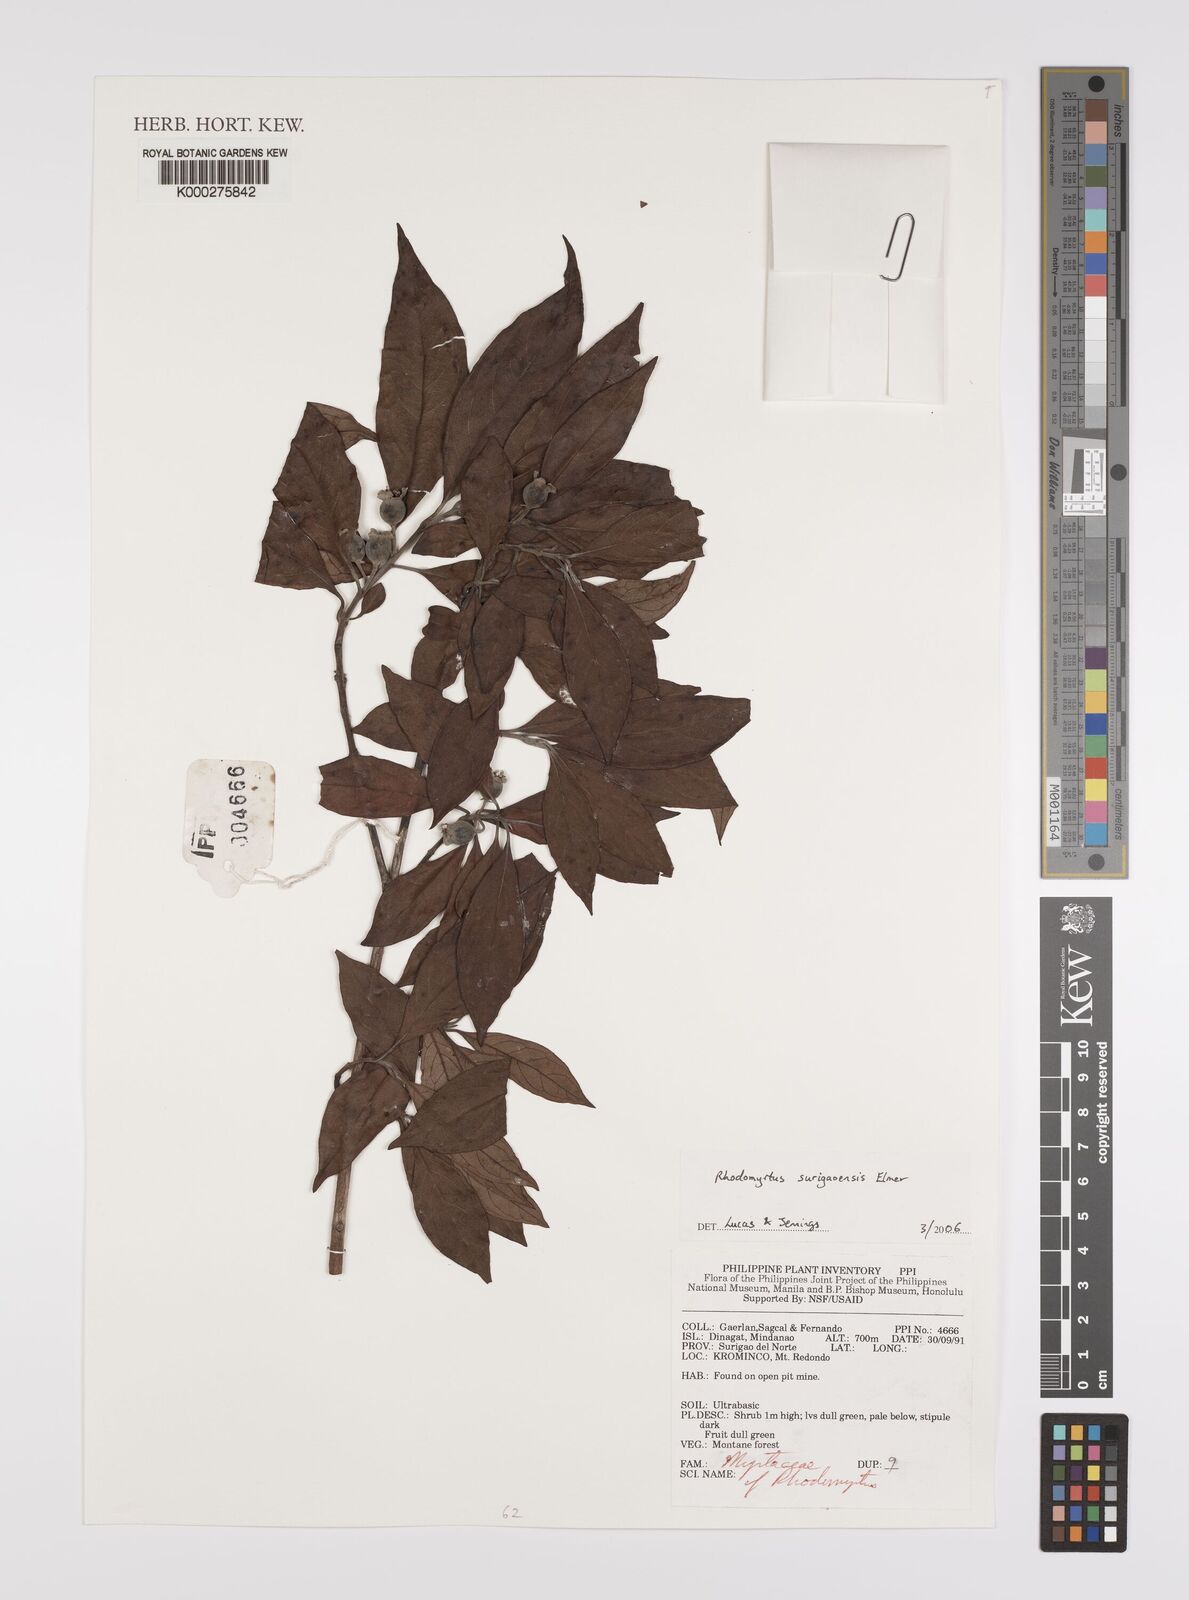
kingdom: Plantae
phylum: Tracheophyta
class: Magnoliopsida
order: Myrtales
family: Myrtaceae
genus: Rhodomyrtus
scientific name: Rhodomyrtus surigaoensis
